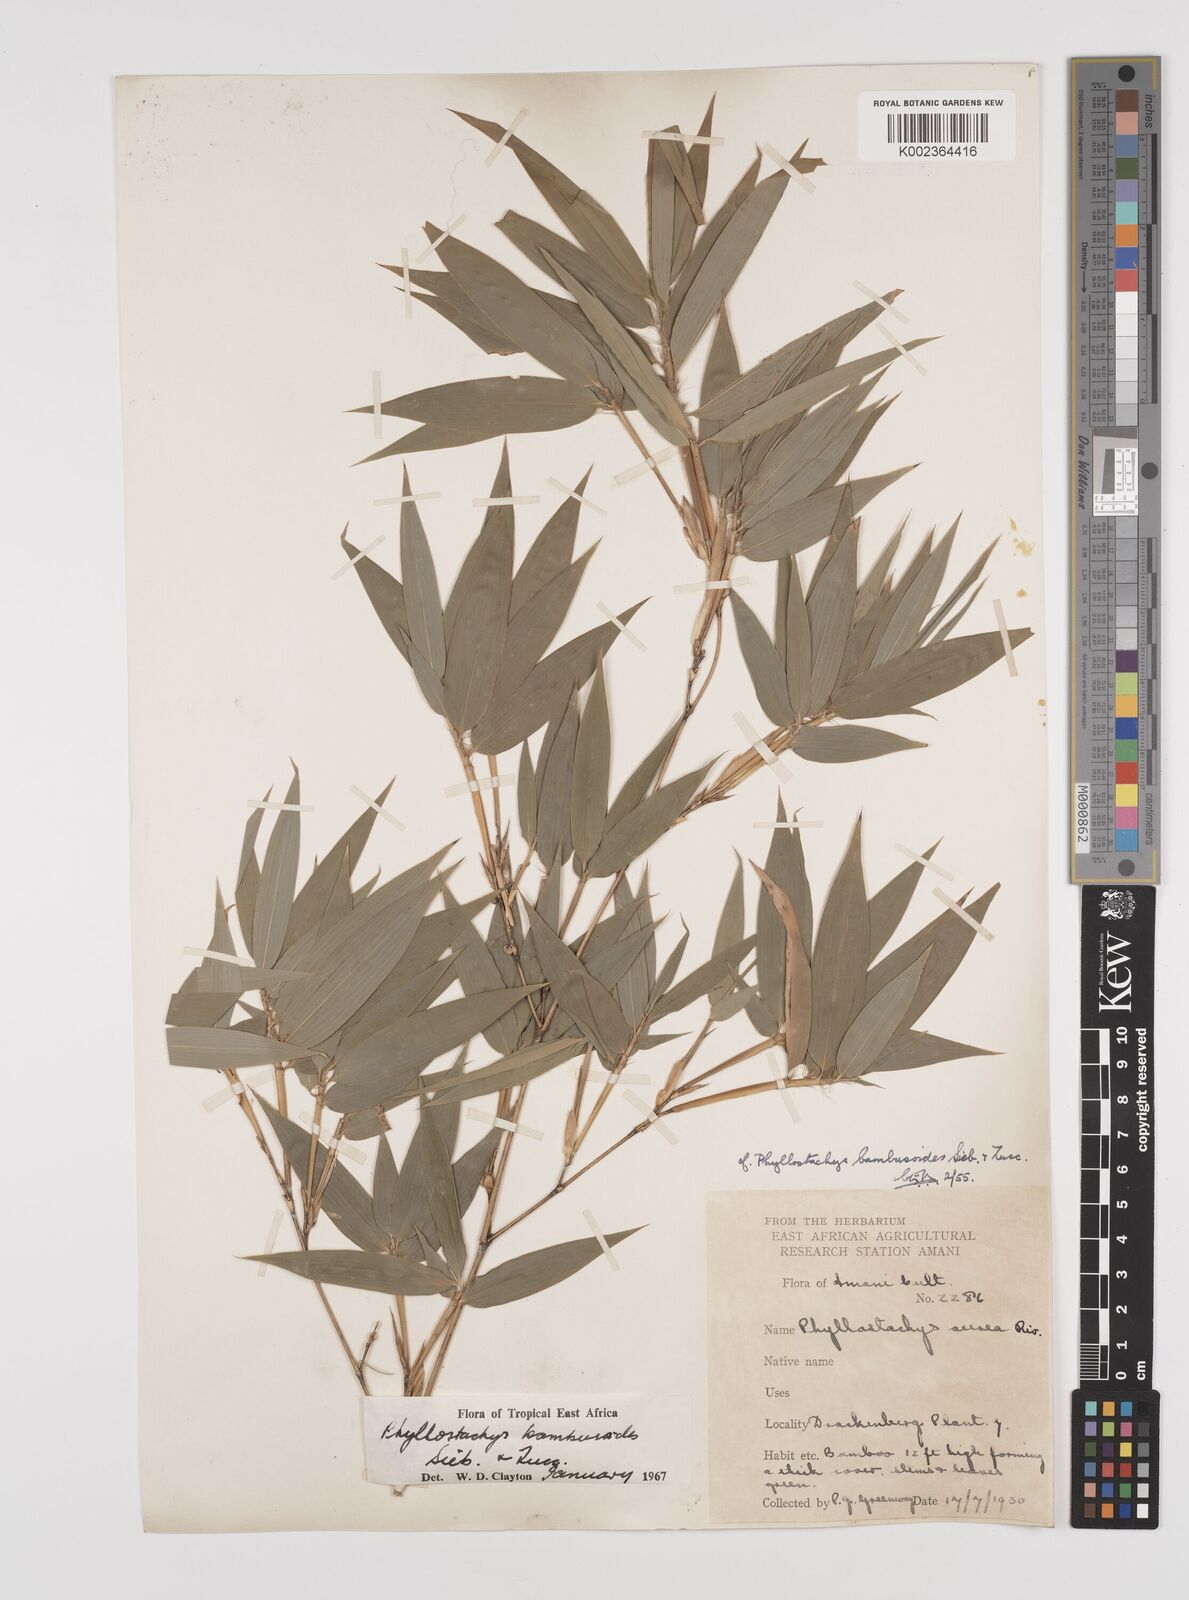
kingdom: Plantae
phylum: Tracheophyta
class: Liliopsida
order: Poales
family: Poaceae
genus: Phyllostachys
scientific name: Phyllostachys reticulata
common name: Bamboo
